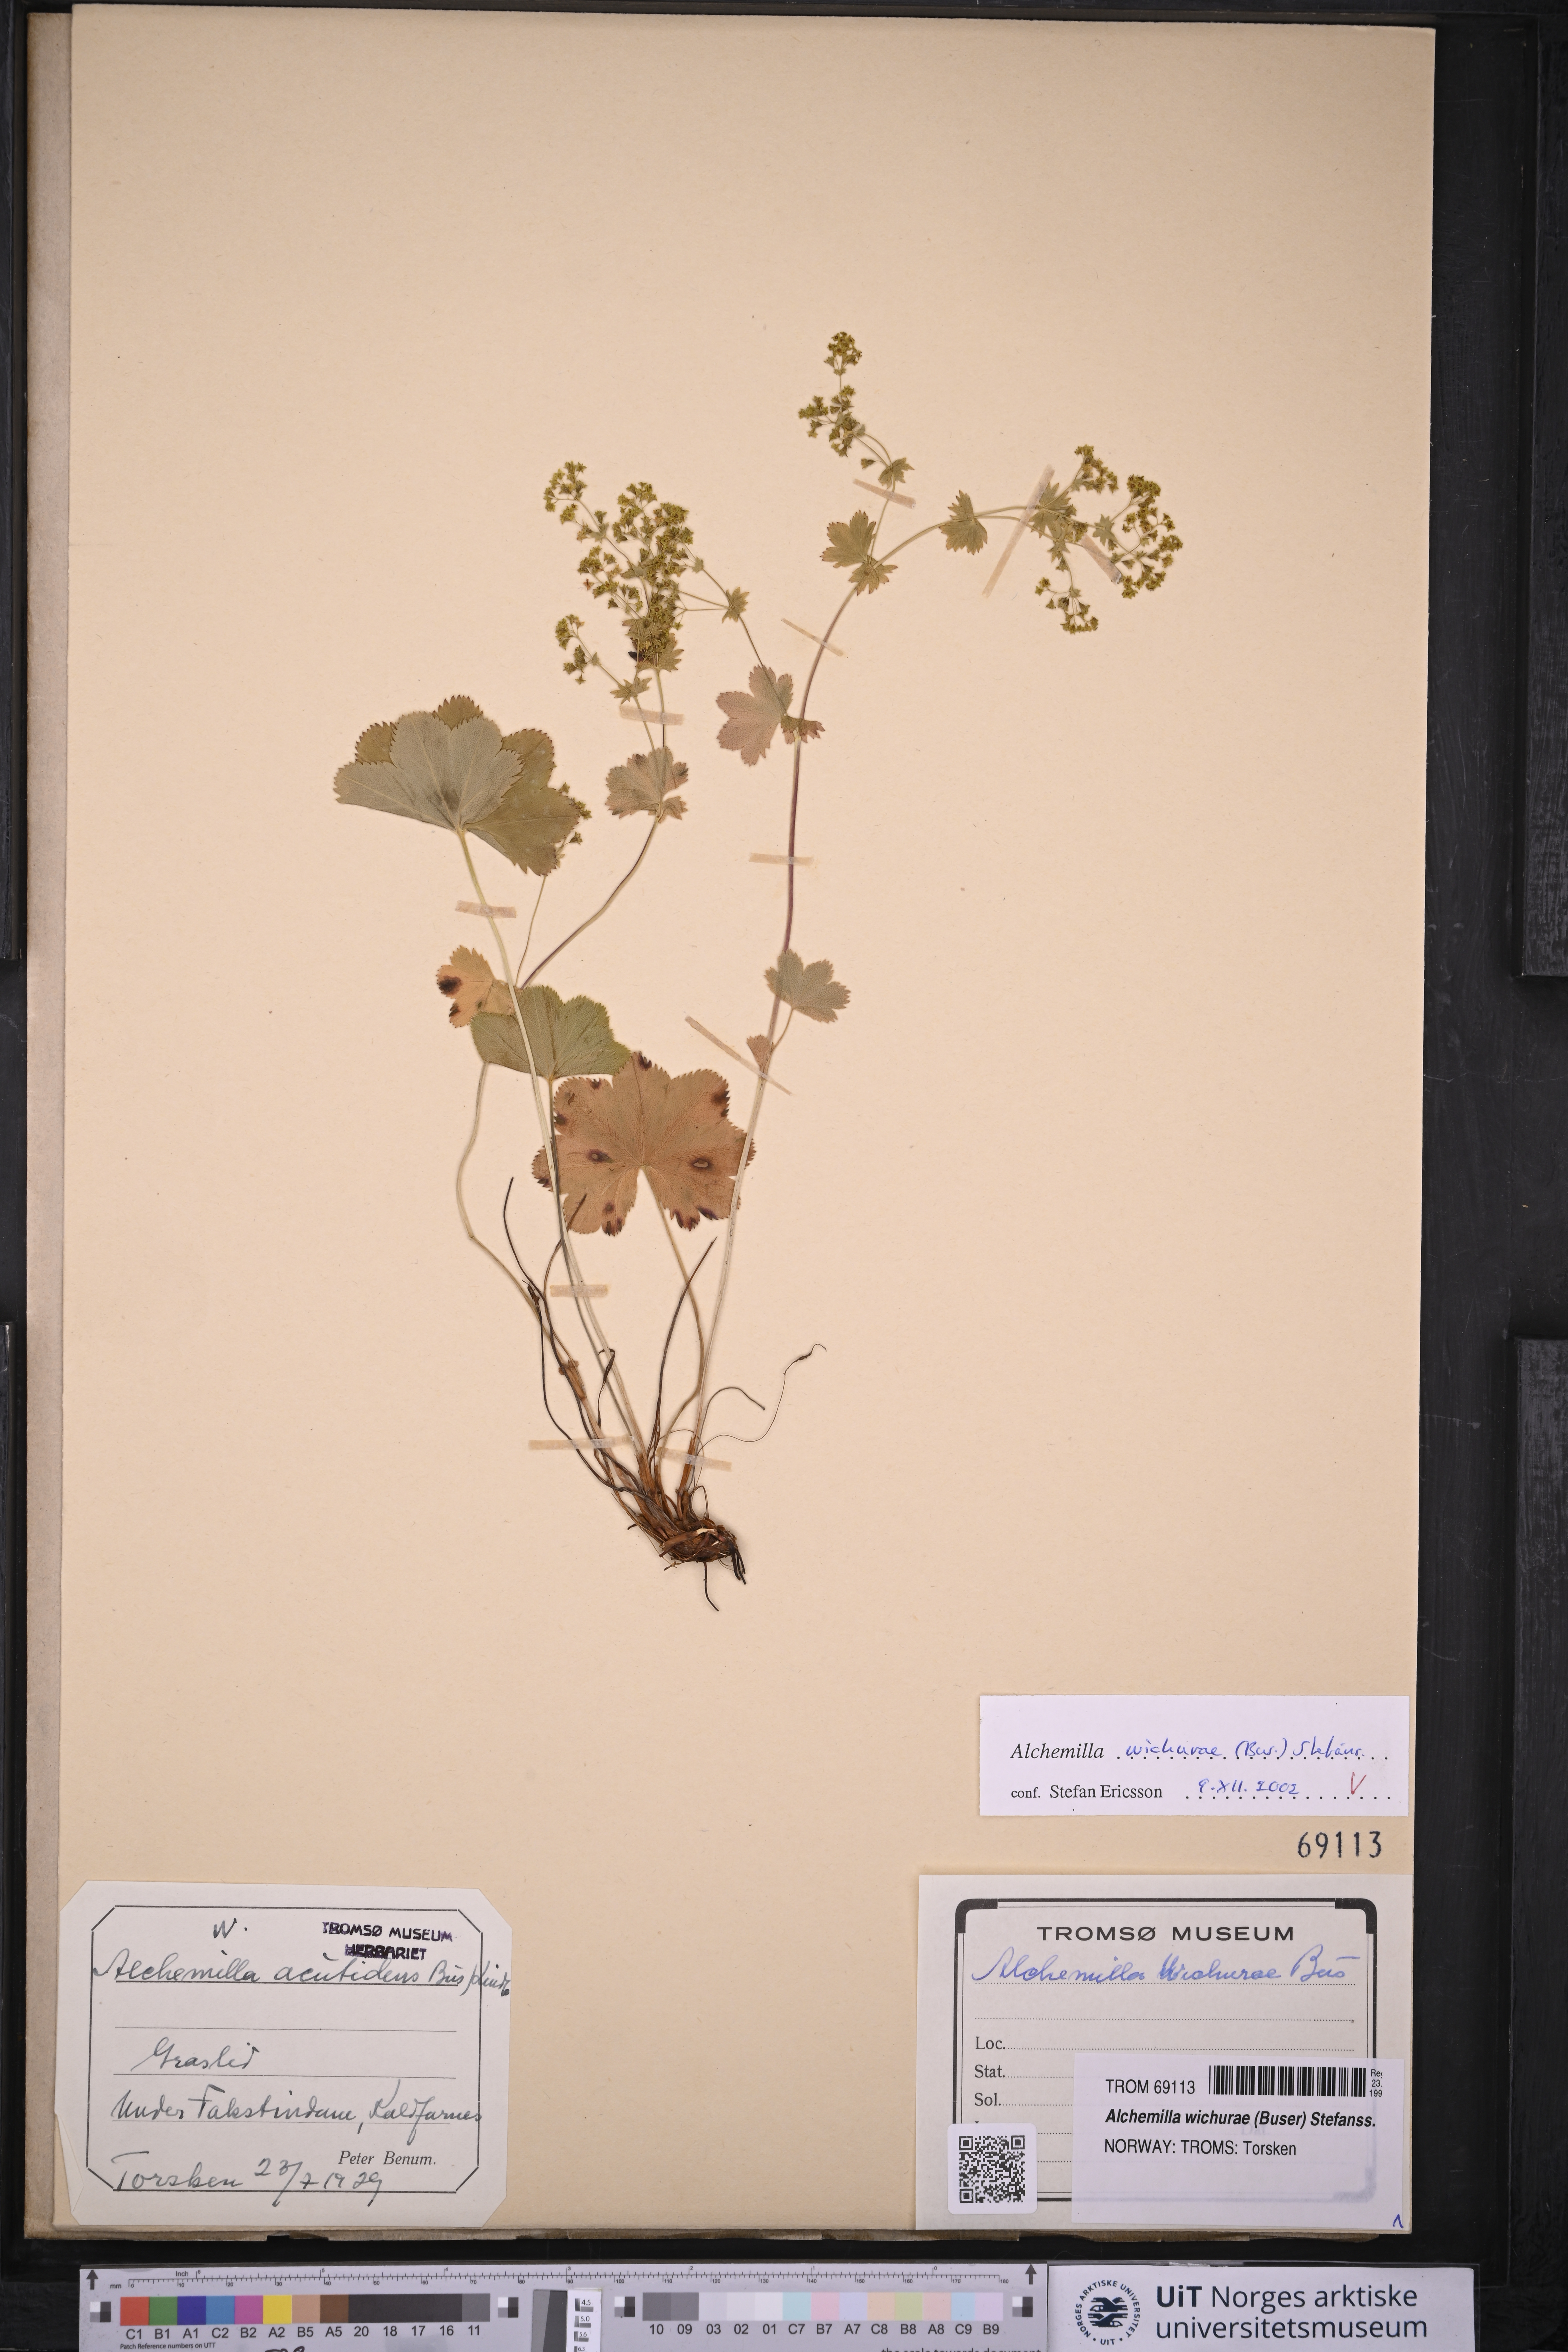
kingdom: Plantae
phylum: Tracheophyta
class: Magnoliopsida
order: Rosales
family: Rosaceae
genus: Alchemilla
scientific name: Alchemilla wichurae
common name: Rock lady's mantle
